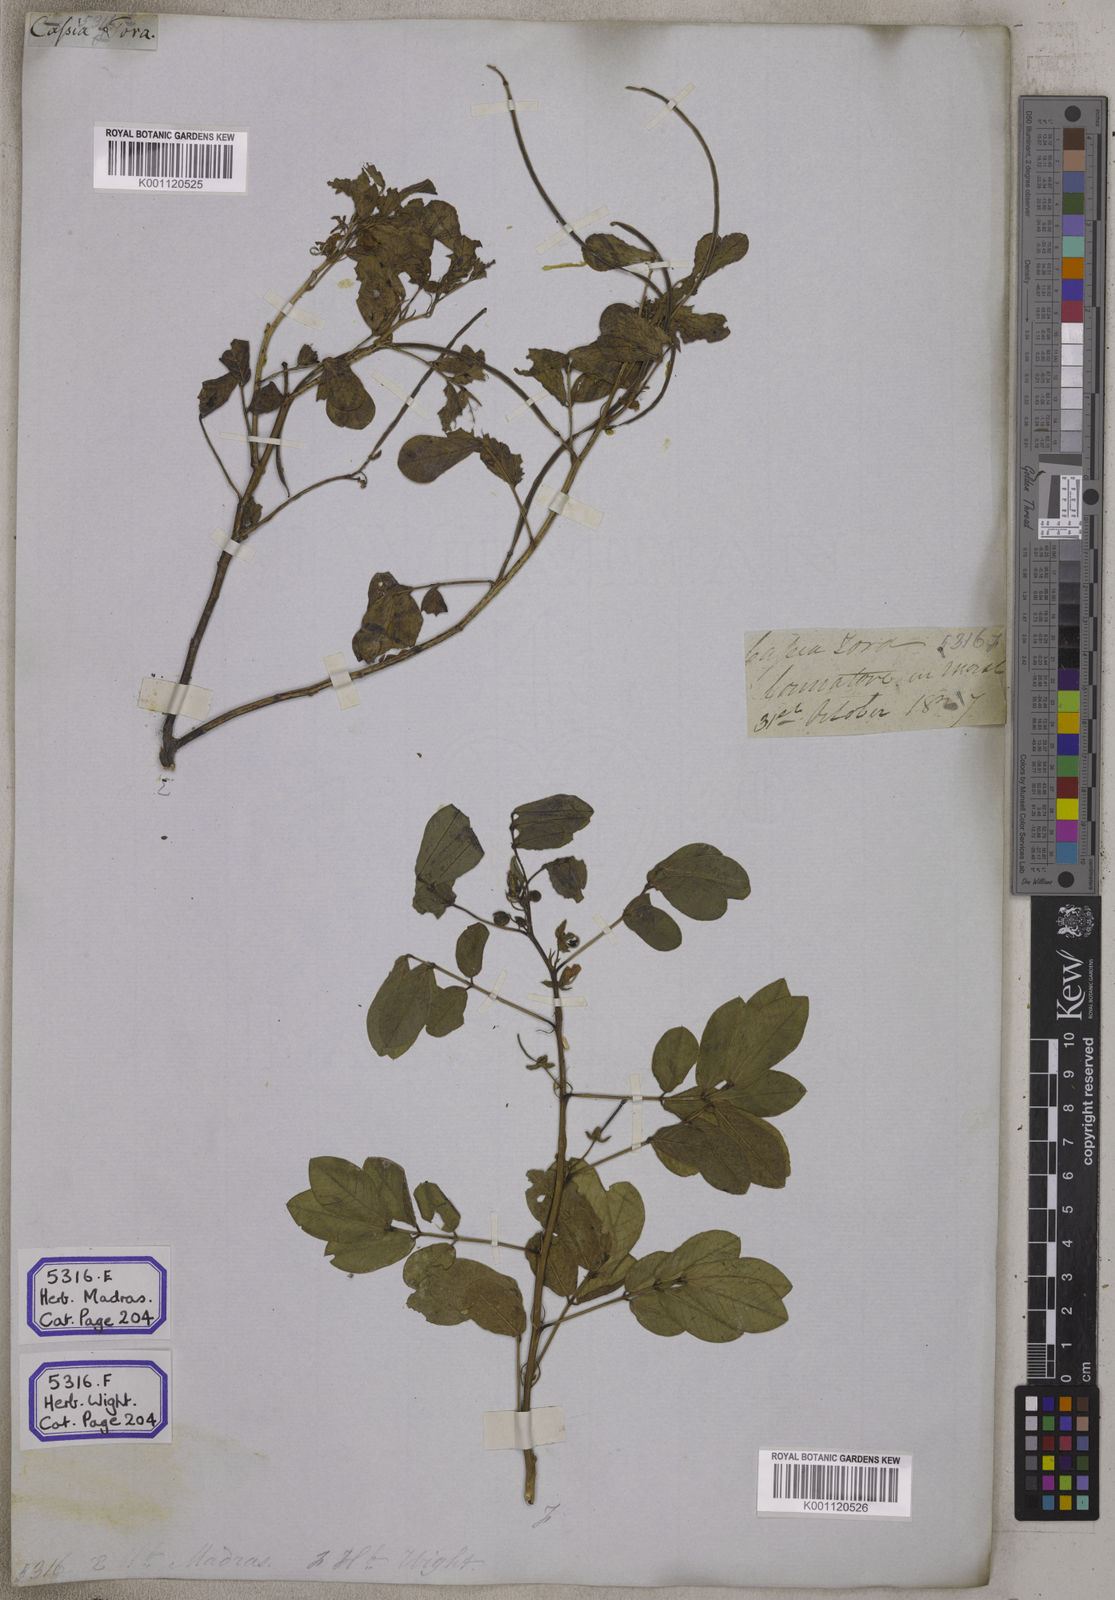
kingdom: Plantae
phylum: Tracheophyta
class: Magnoliopsida
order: Fabales
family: Fabaceae
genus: Senna
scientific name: Senna tora
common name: Sickle senna
